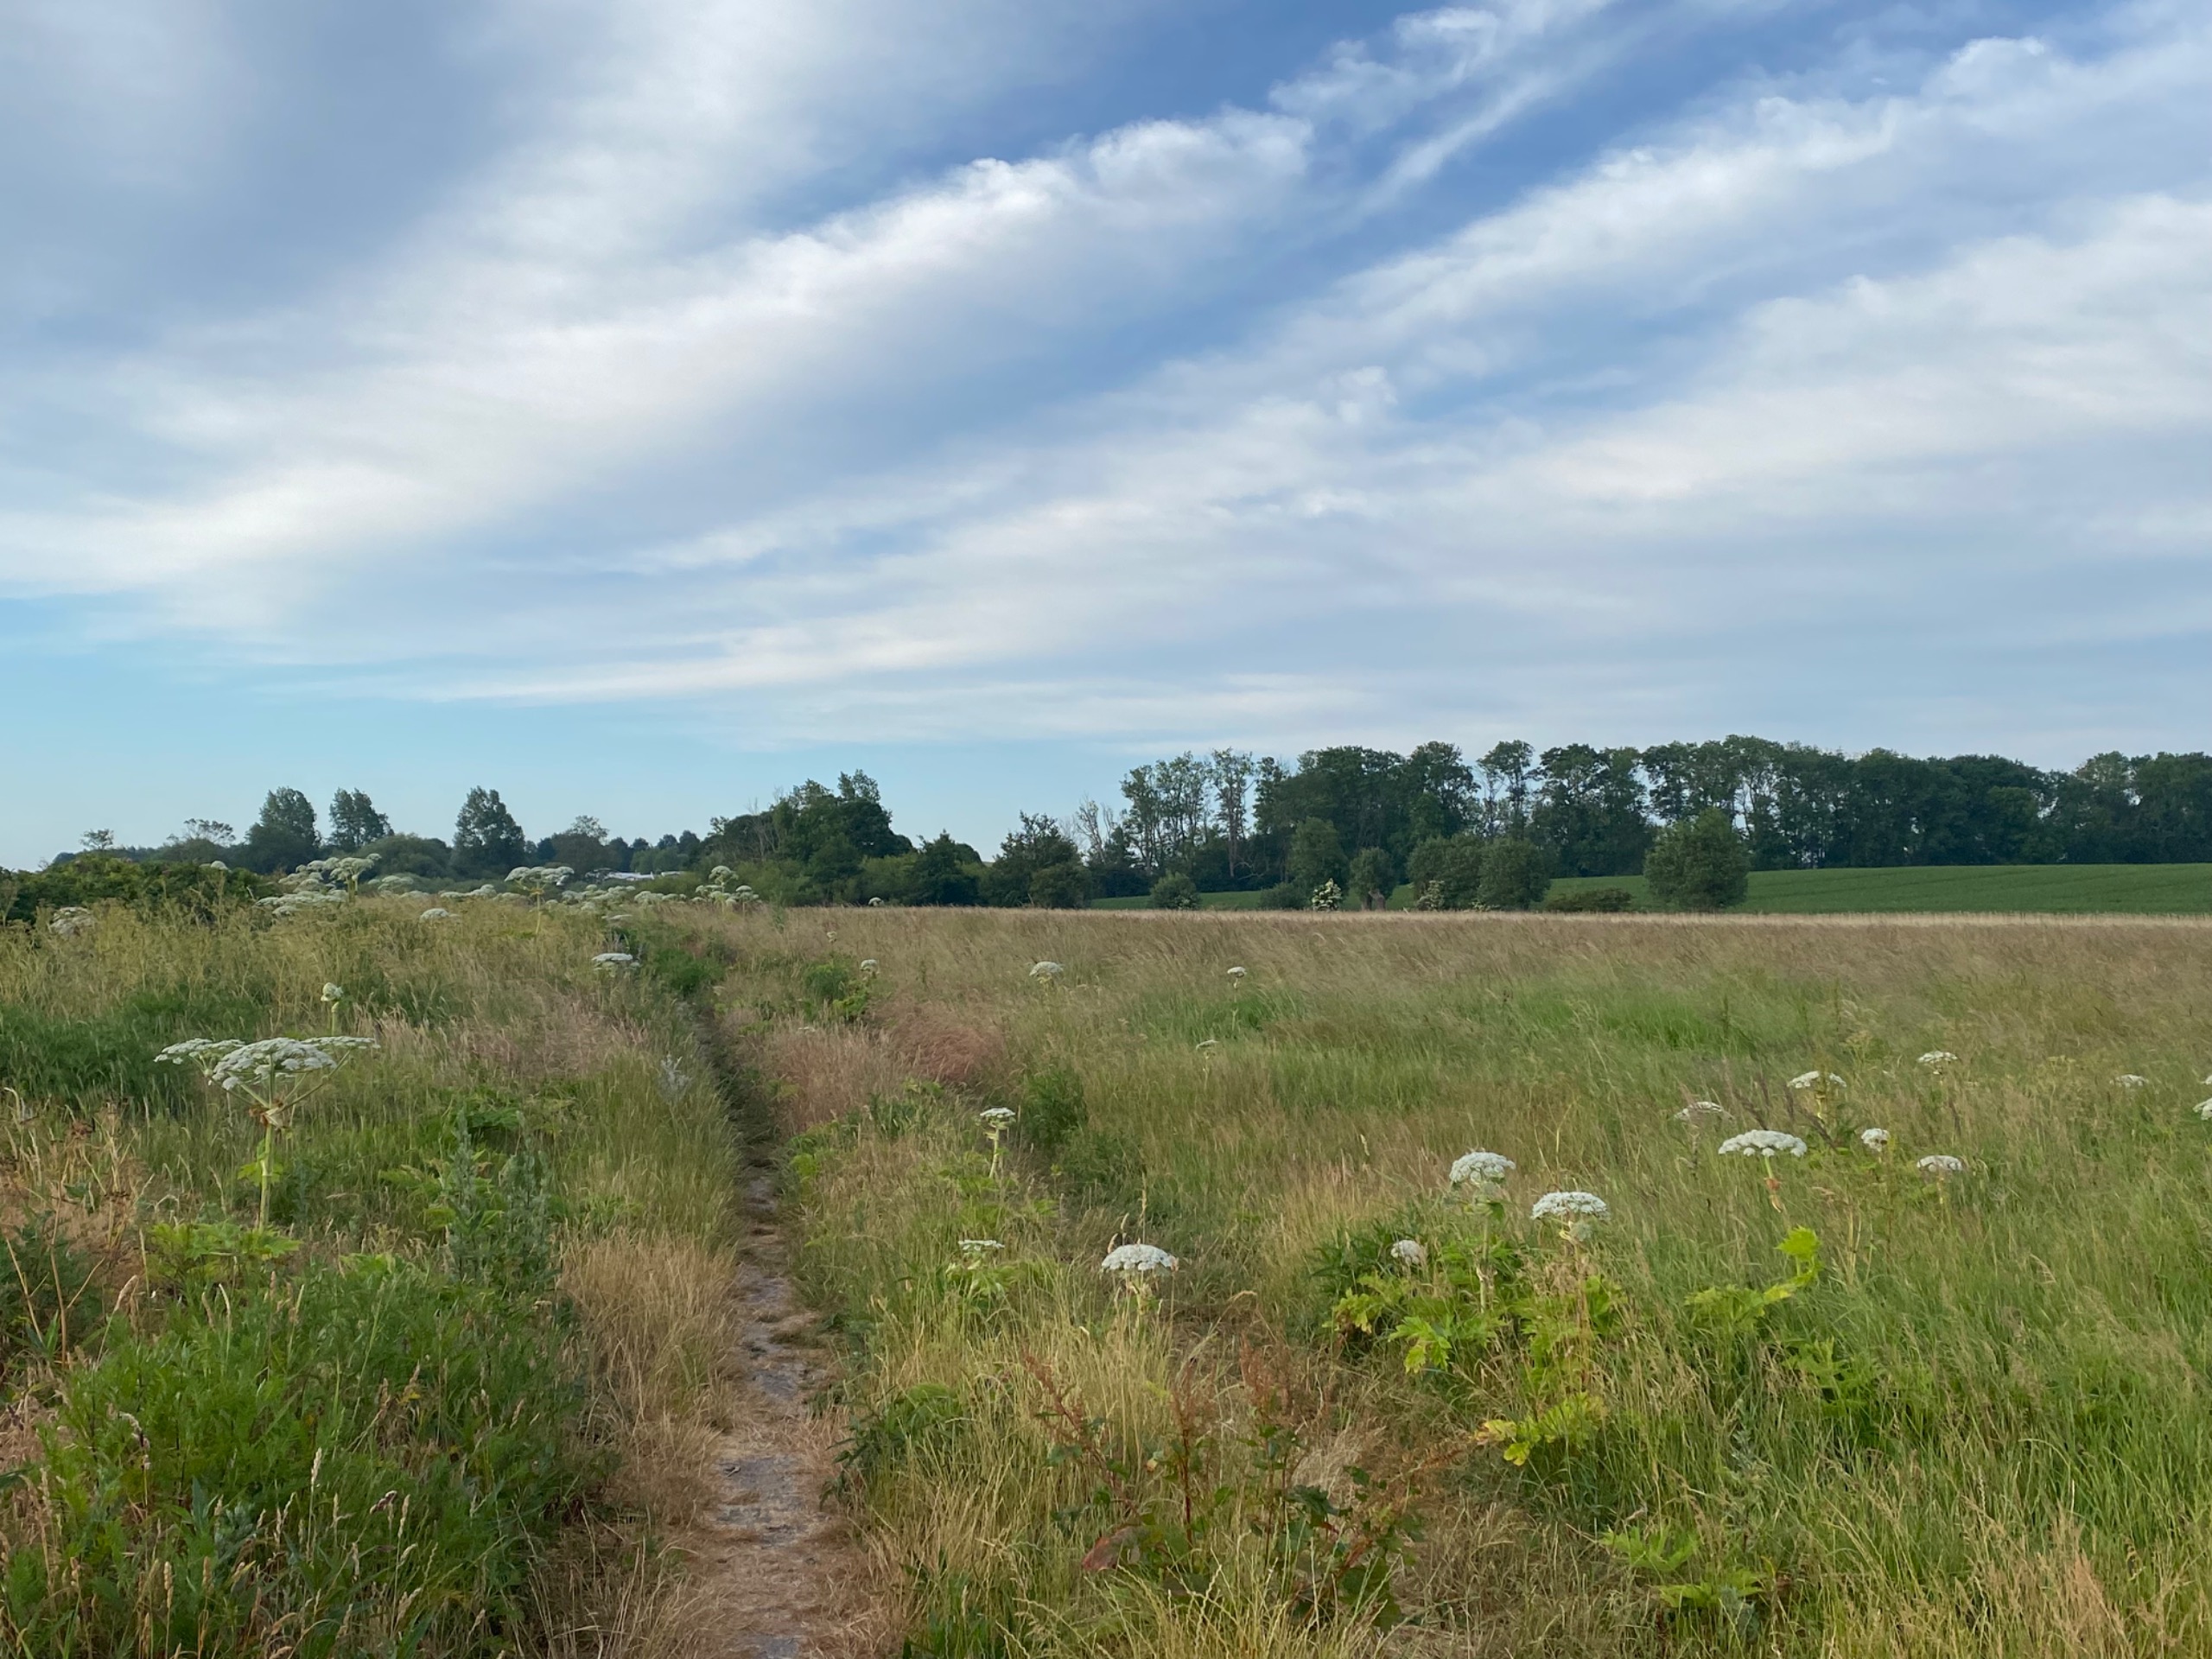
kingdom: Plantae
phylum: Tracheophyta
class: Magnoliopsida
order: Apiales
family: Apiaceae
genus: Heracleum
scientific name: Heracleum mantegazzianum
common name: Kæmpe-bjørneklo
